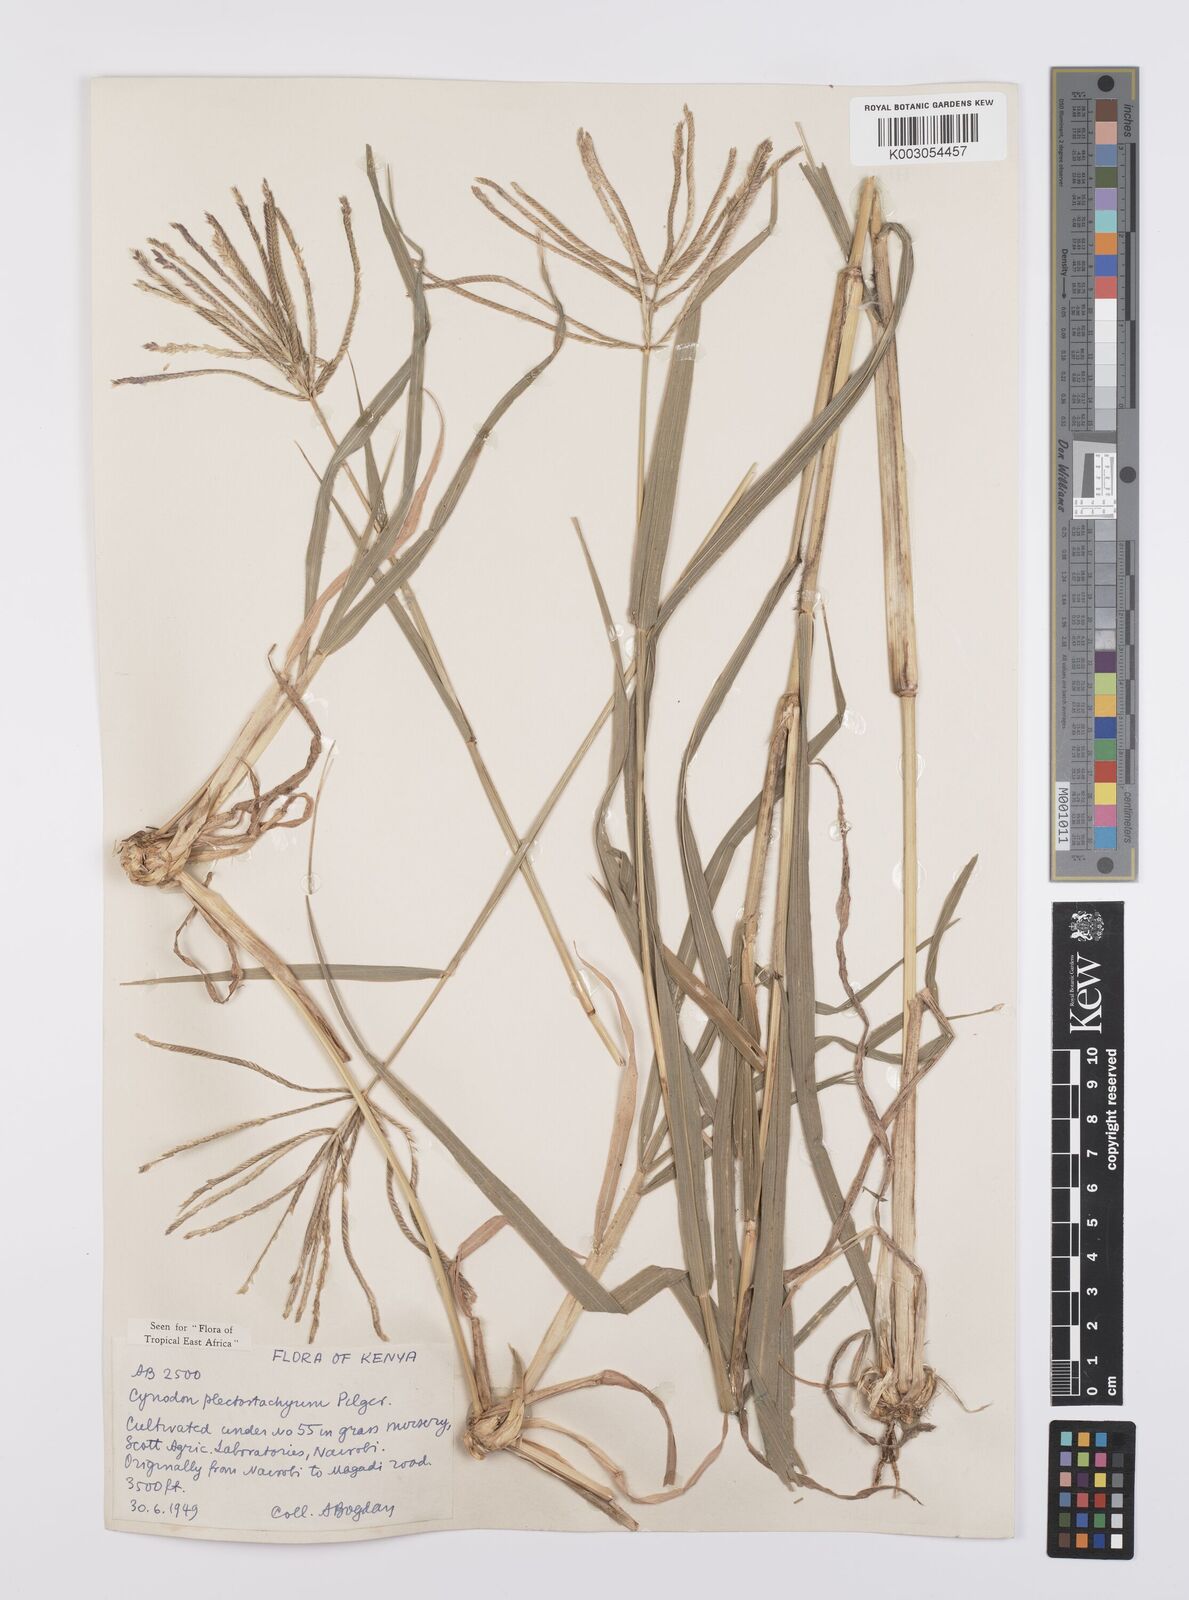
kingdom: Plantae
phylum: Tracheophyta
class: Liliopsida
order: Poales
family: Poaceae
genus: Cynodon
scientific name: Cynodon plectostachyus
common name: Stargrass
